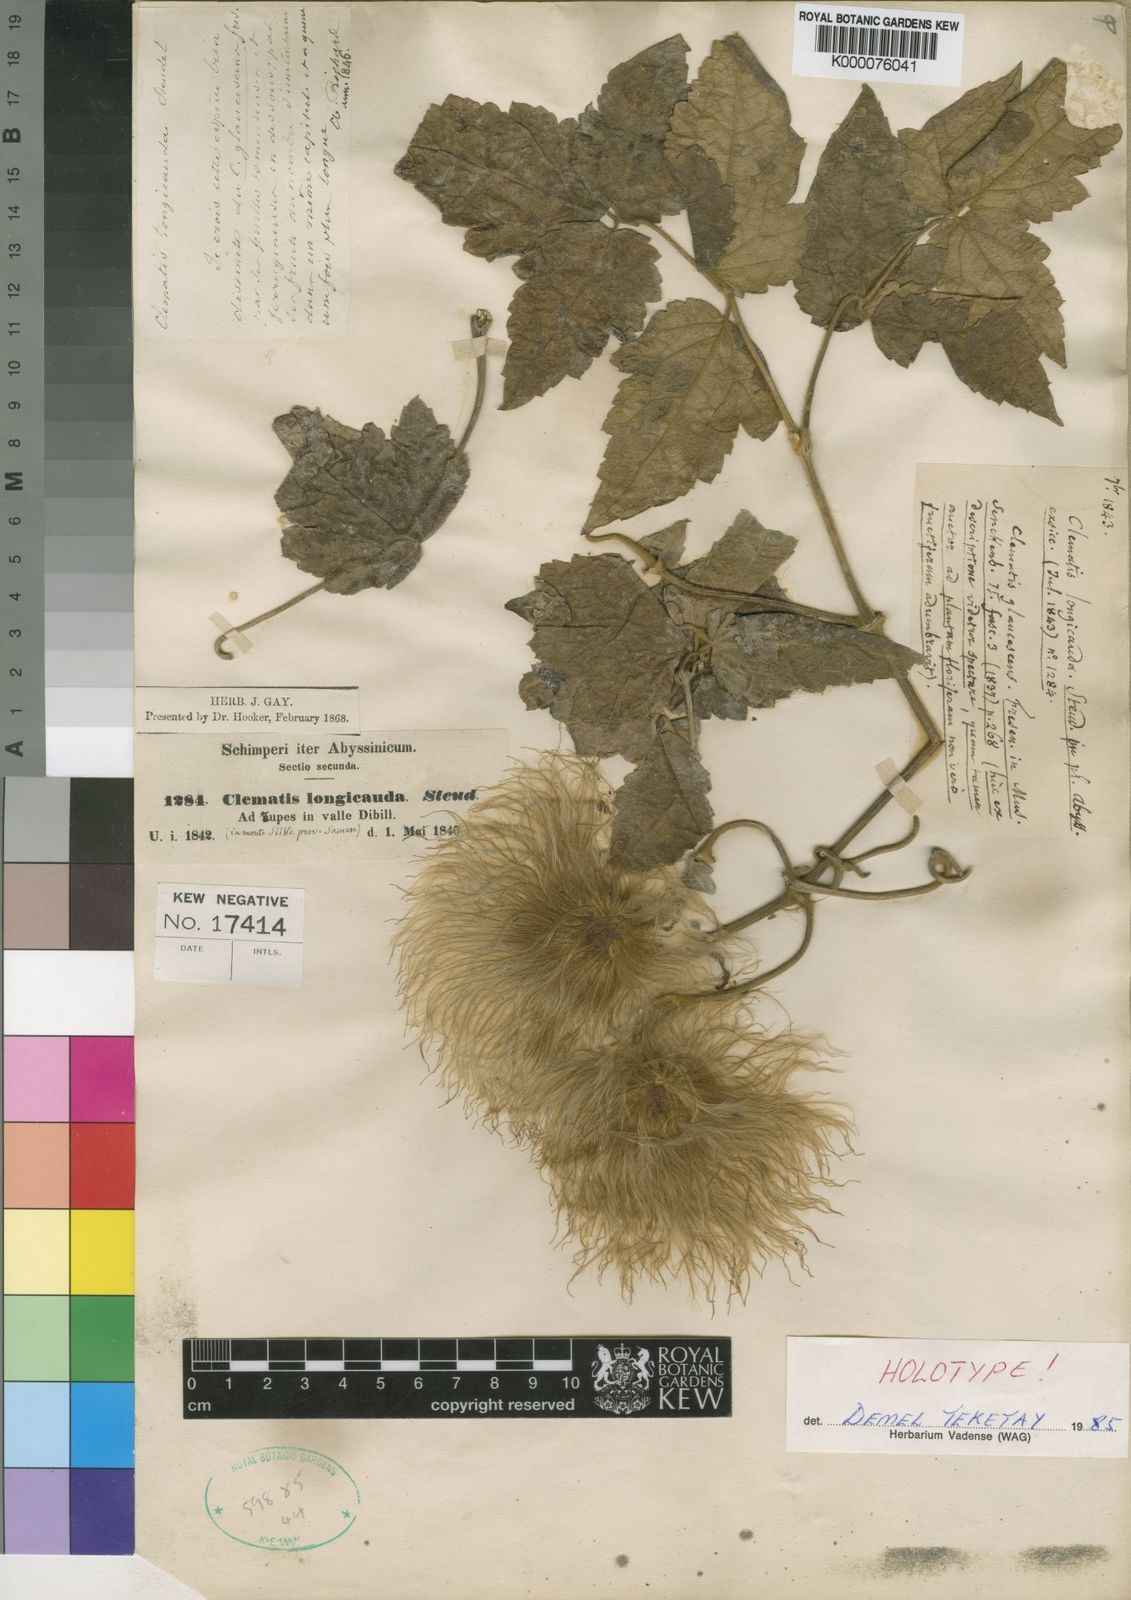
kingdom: Plantae
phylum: Tracheophyta
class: Magnoliopsida
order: Ranunculales
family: Ranunculaceae
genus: Clematis
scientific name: Clematis grandiflora
